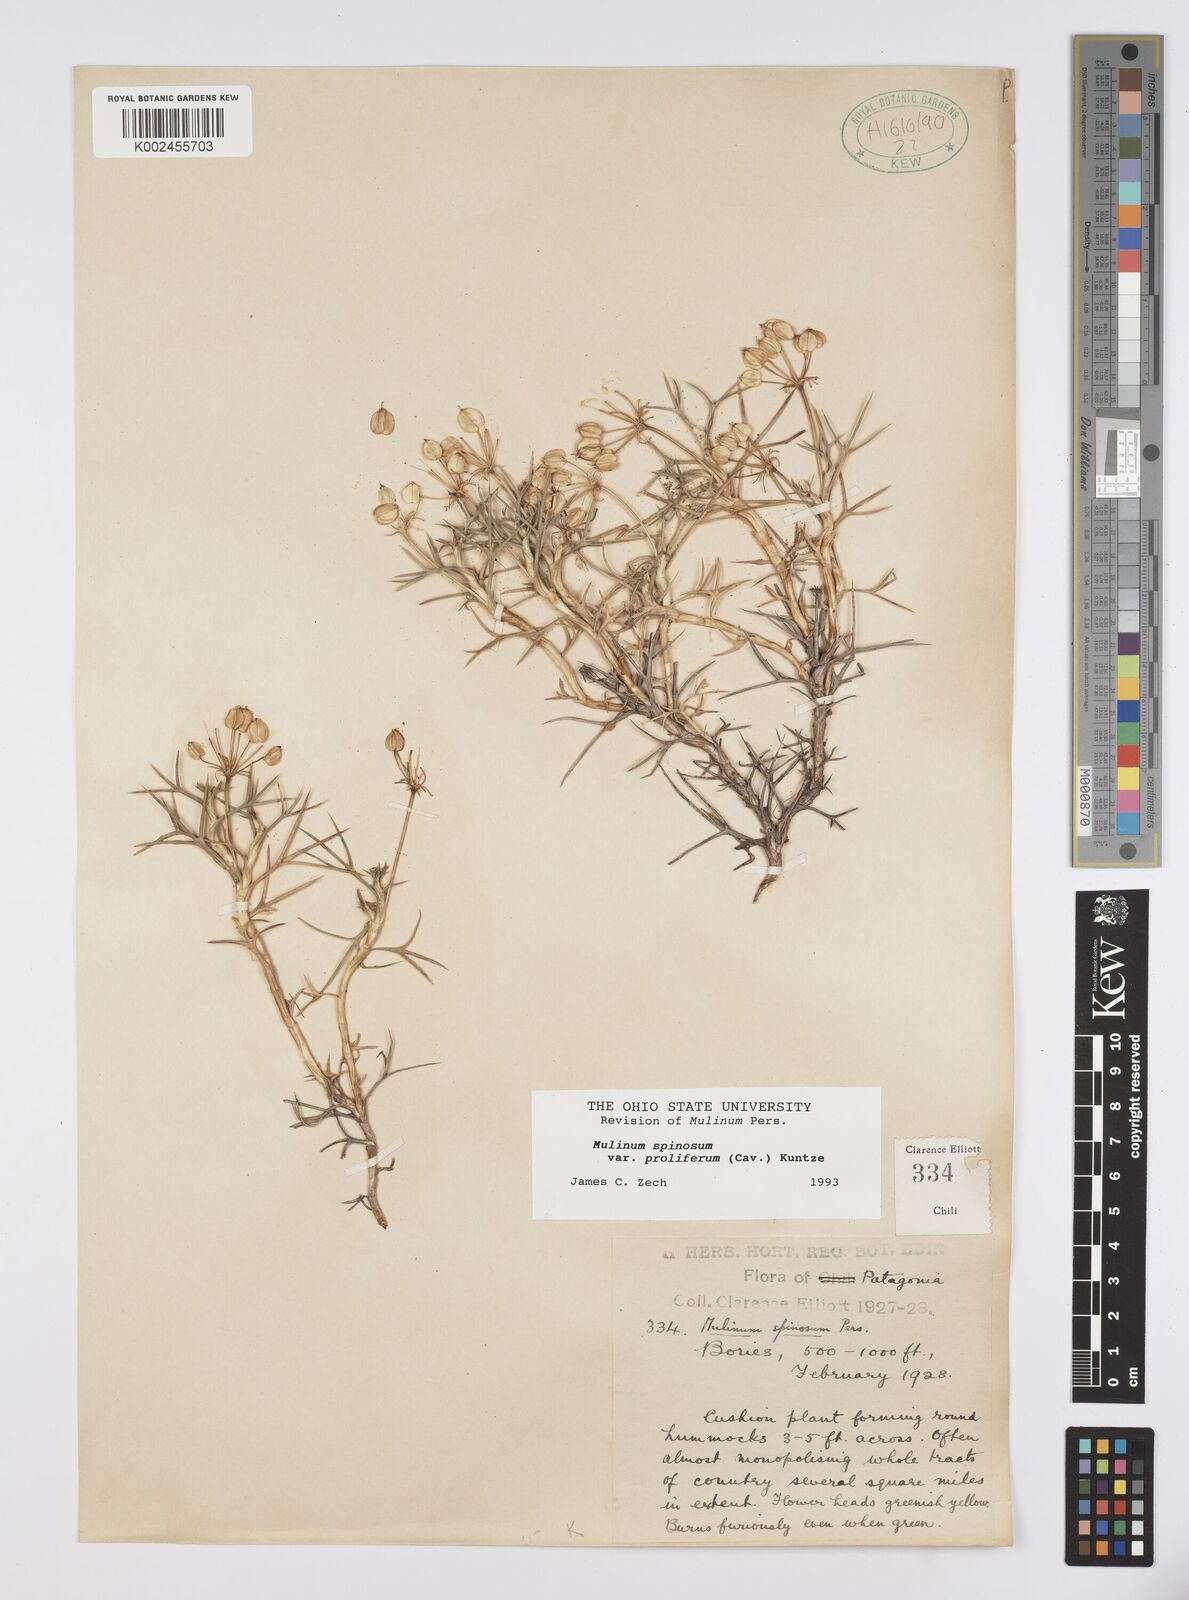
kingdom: Plantae
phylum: Tracheophyta
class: Magnoliopsida
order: Apiales
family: Apiaceae
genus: Azorella
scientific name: Azorella prolifera
